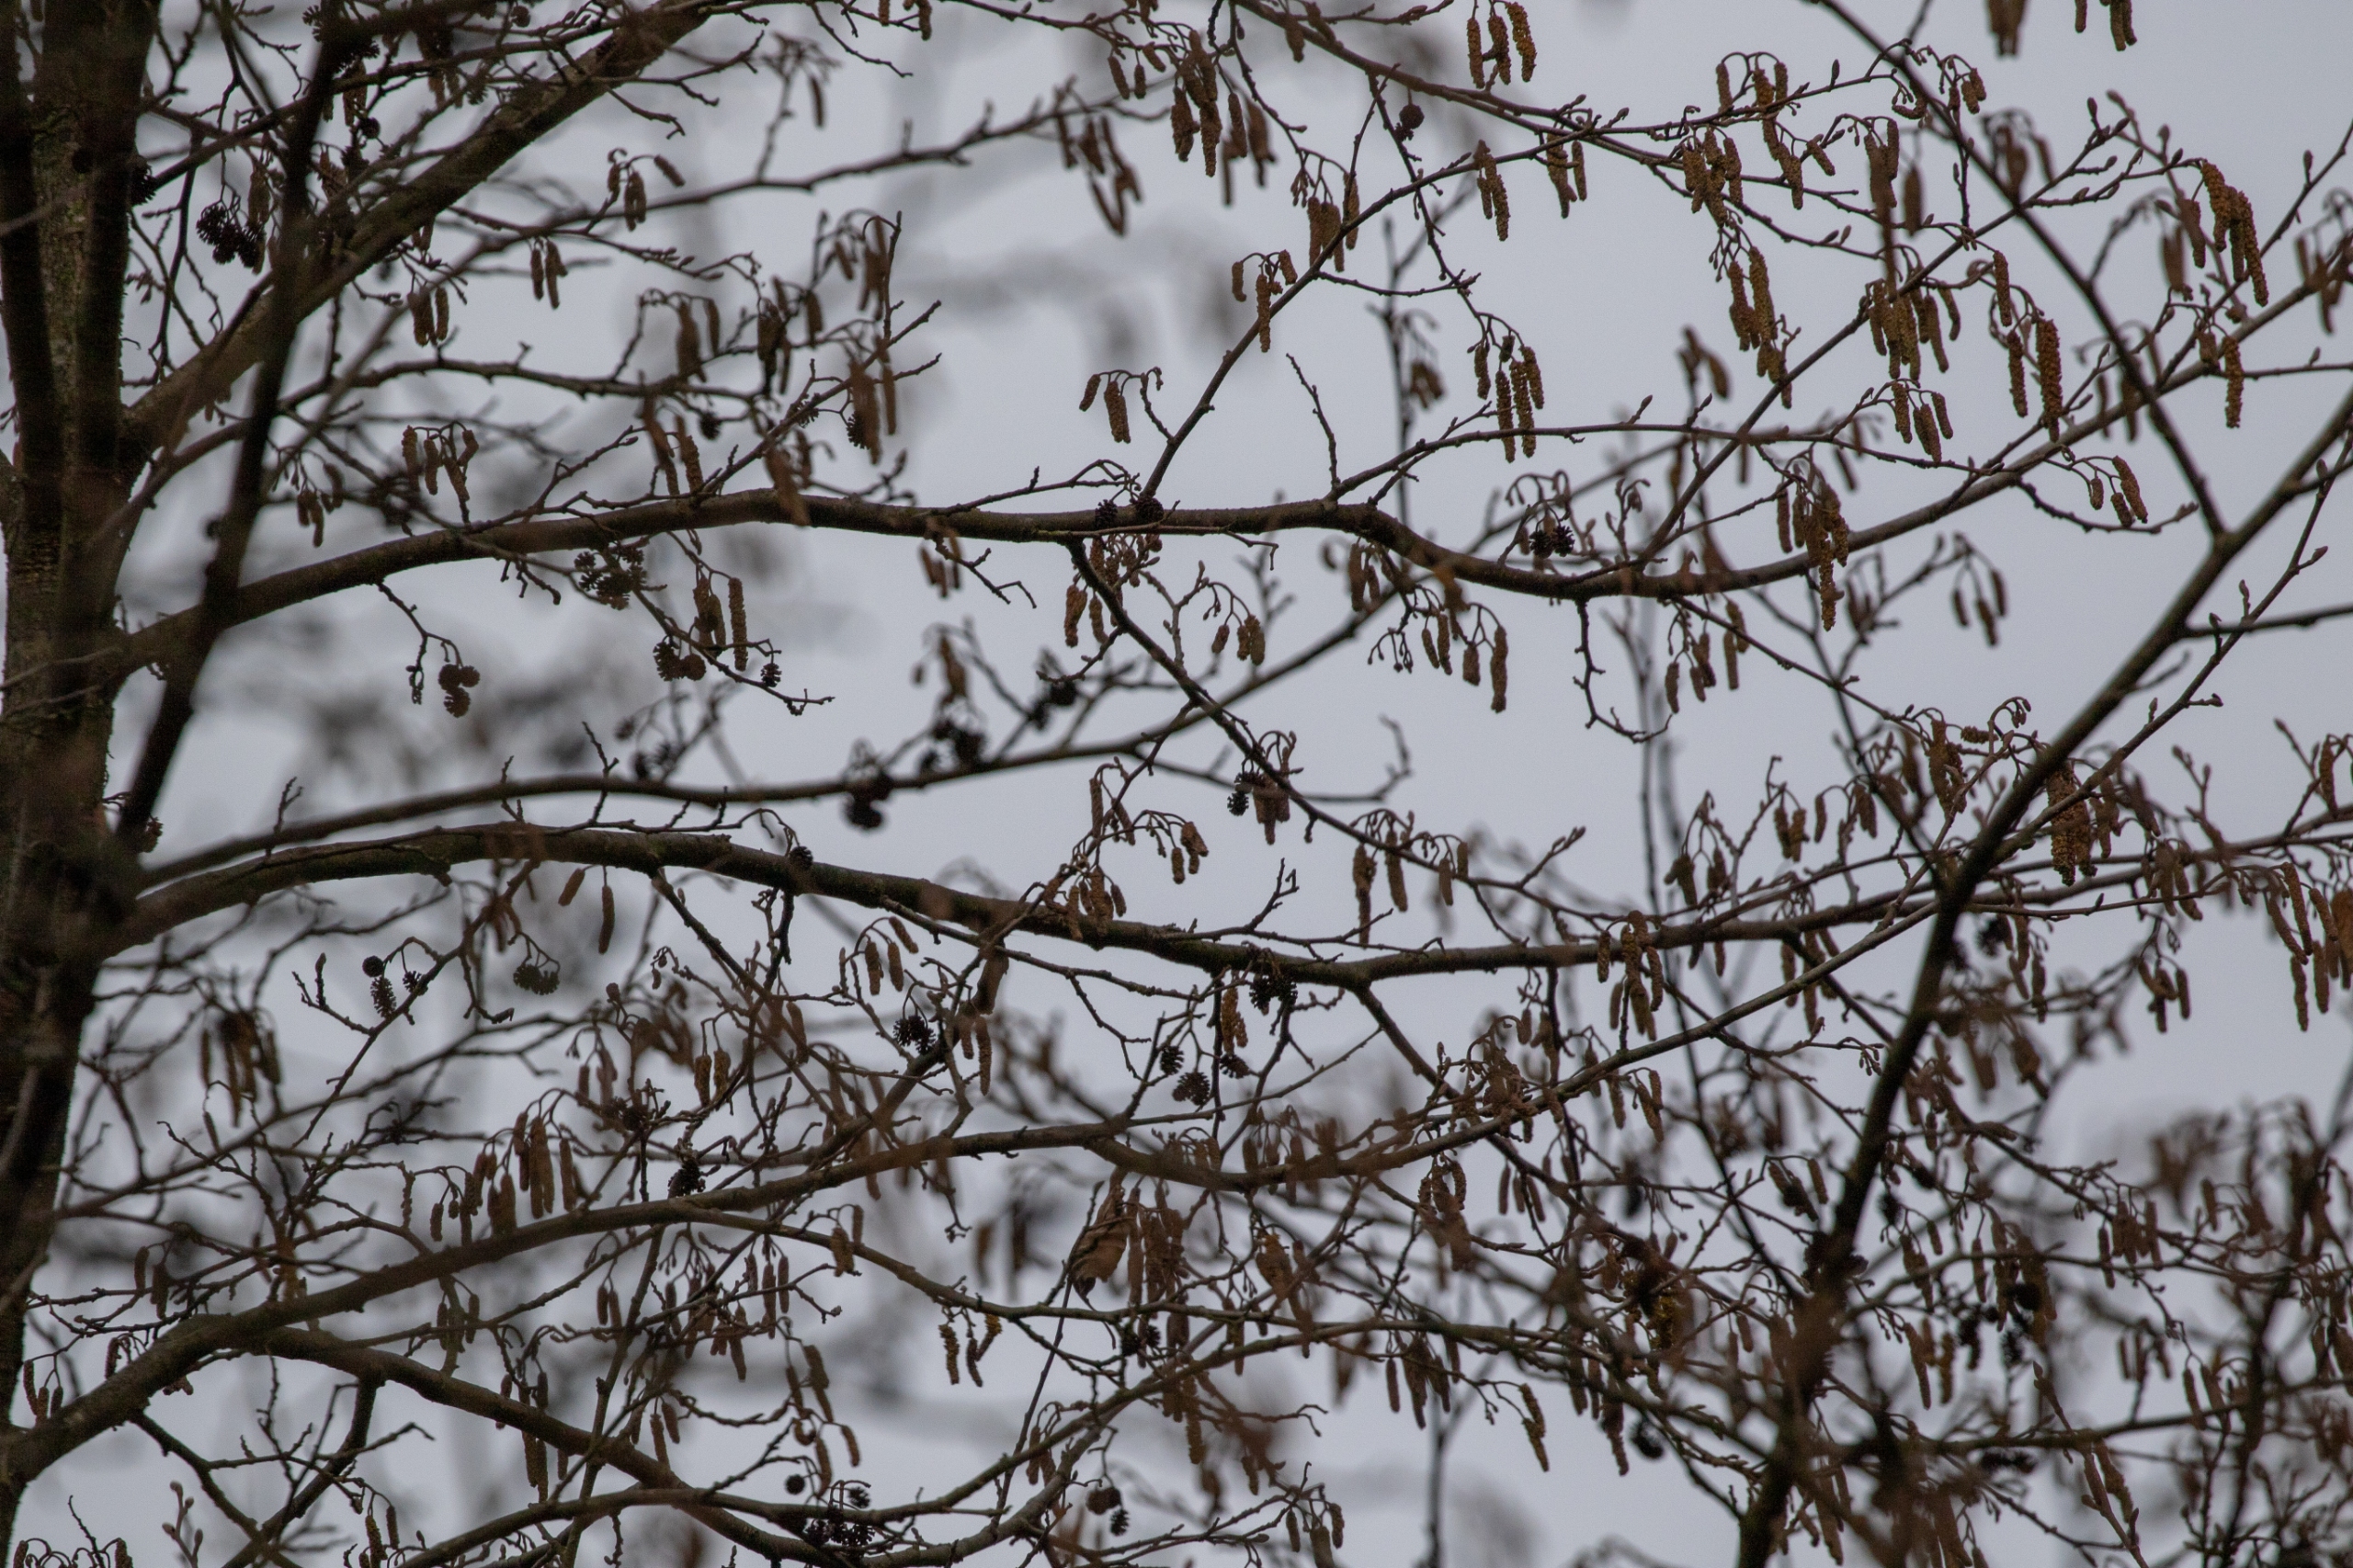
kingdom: Plantae
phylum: Tracheophyta
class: Magnoliopsida
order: Fagales
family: Betulaceae
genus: Alnus
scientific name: Alnus glutinosa
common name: Rød-el
